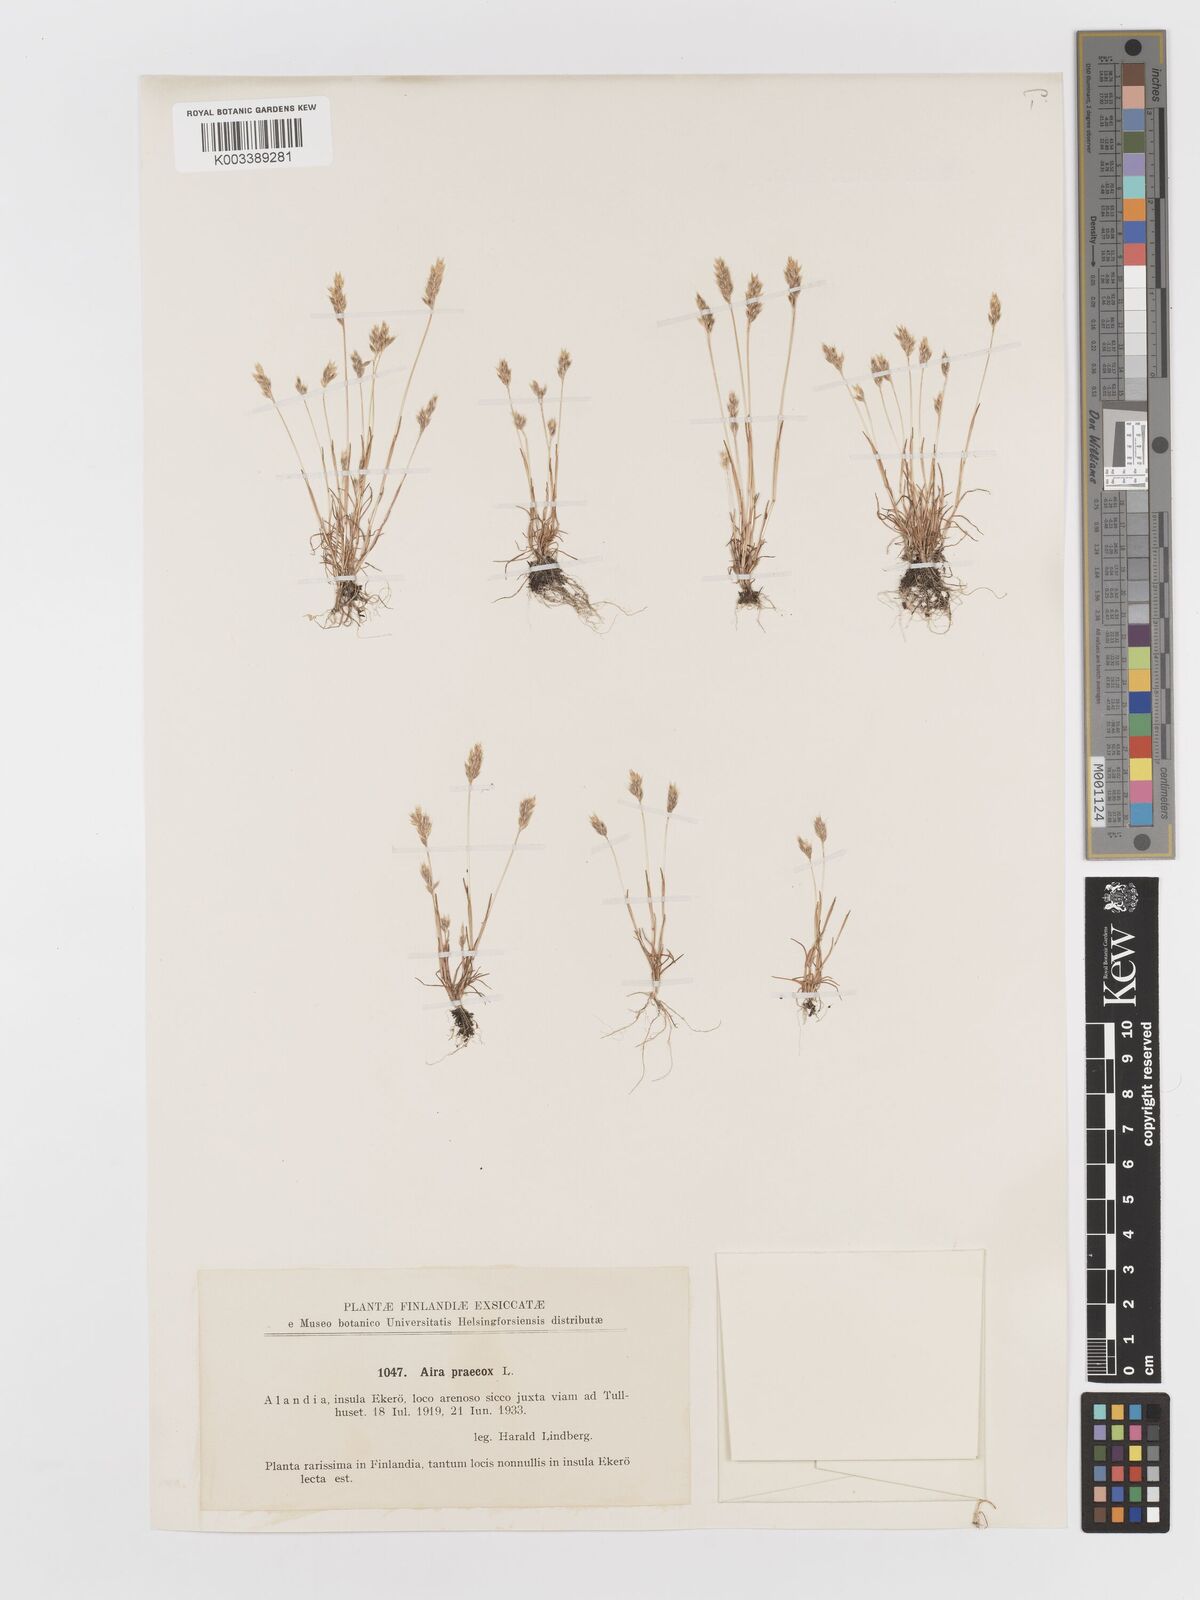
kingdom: Plantae
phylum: Tracheophyta
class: Liliopsida
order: Poales
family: Poaceae
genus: Aira
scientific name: Aira praecox
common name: Early hair-grass
